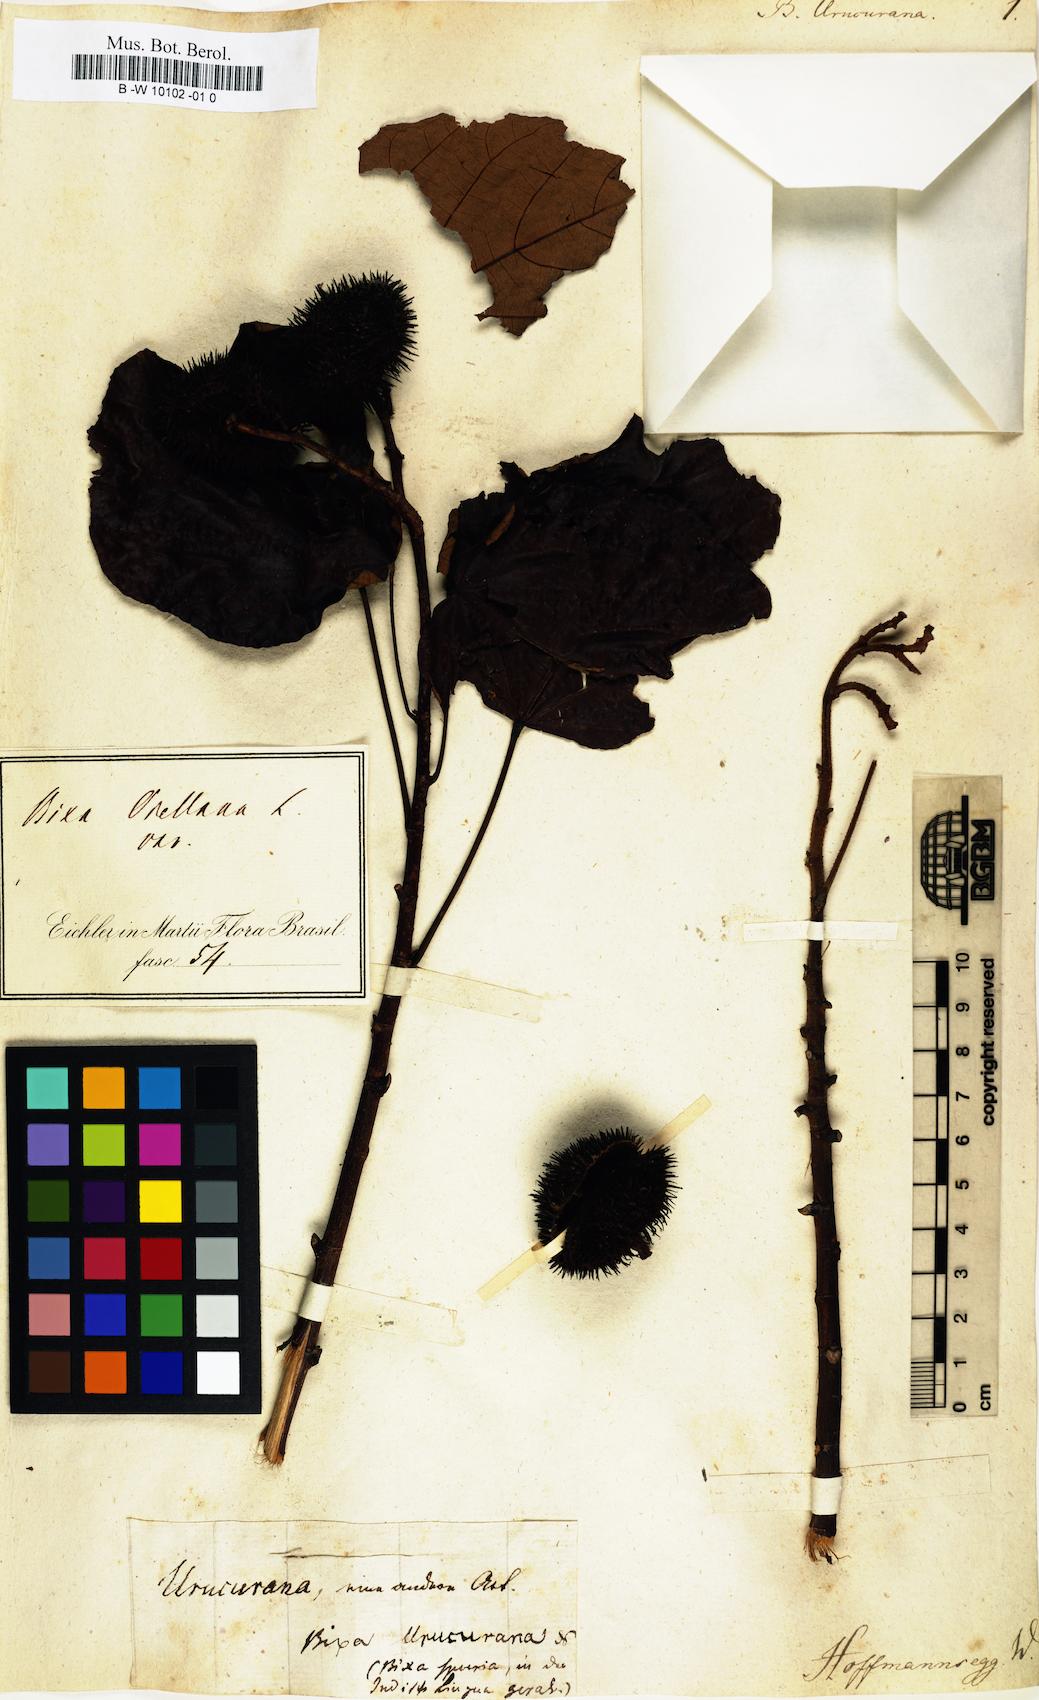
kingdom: Plantae
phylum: Tracheophyta
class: Magnoliopsida
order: Malvales
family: Bixaceae
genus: Bixa
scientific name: Bixa urucurana
